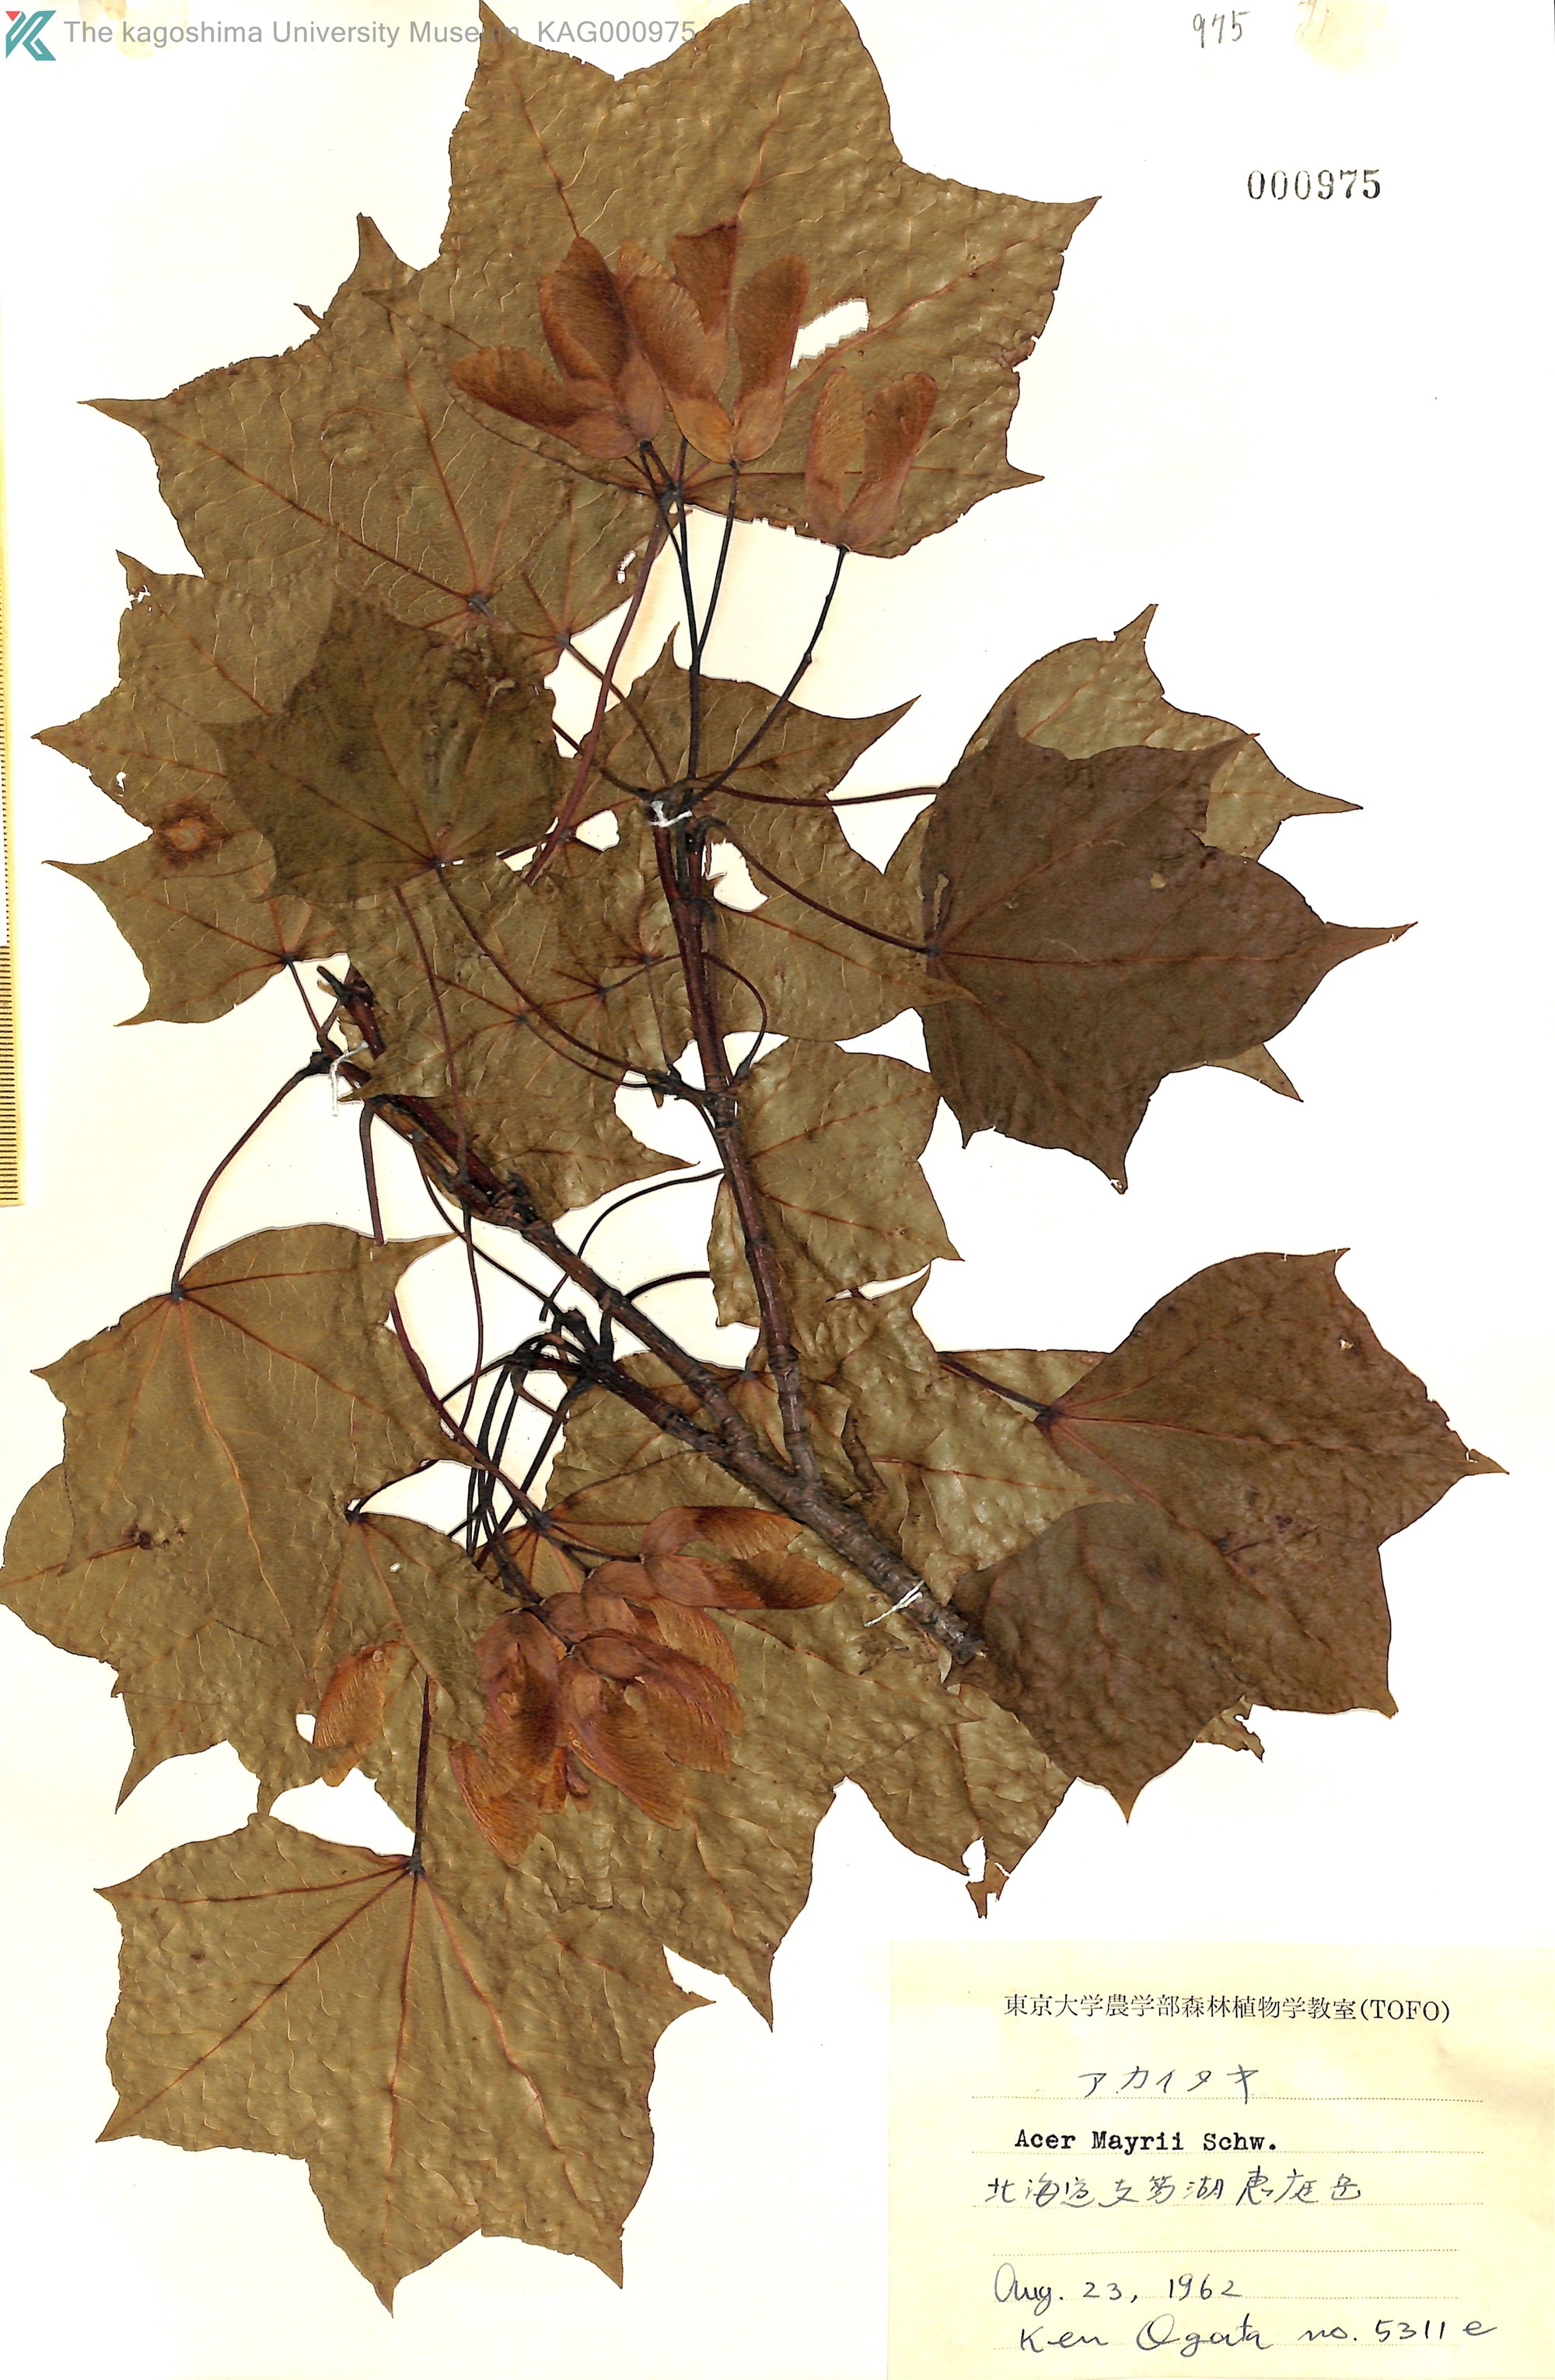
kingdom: Plantae
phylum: Tracheophyta
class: Magnoliopsida
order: Sapindales
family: Sapindaceae
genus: Acer
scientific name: Acer pictum
